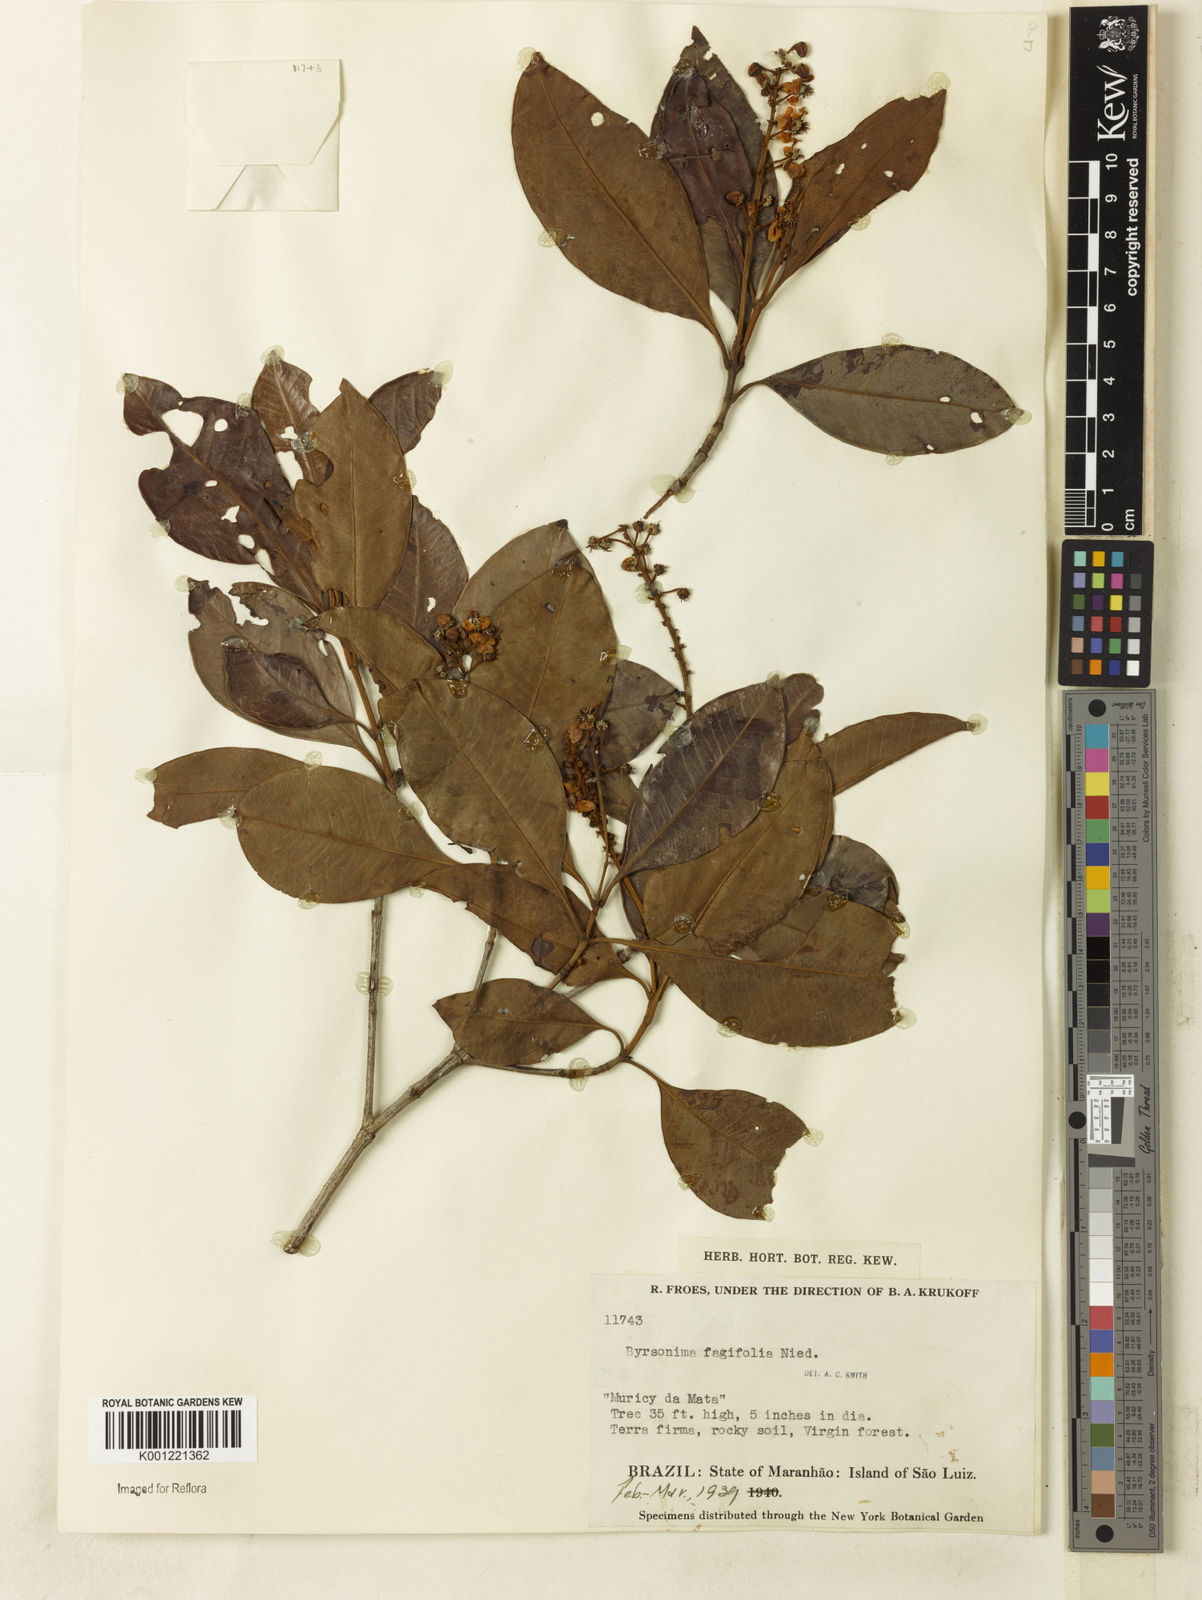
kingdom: Plantae
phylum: Tracheophyta
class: Magnoliopsida
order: Malpighiales
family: Malpighiaceae
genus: Byrsonima
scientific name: Byrsonima crassifolia
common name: Golden spoon
